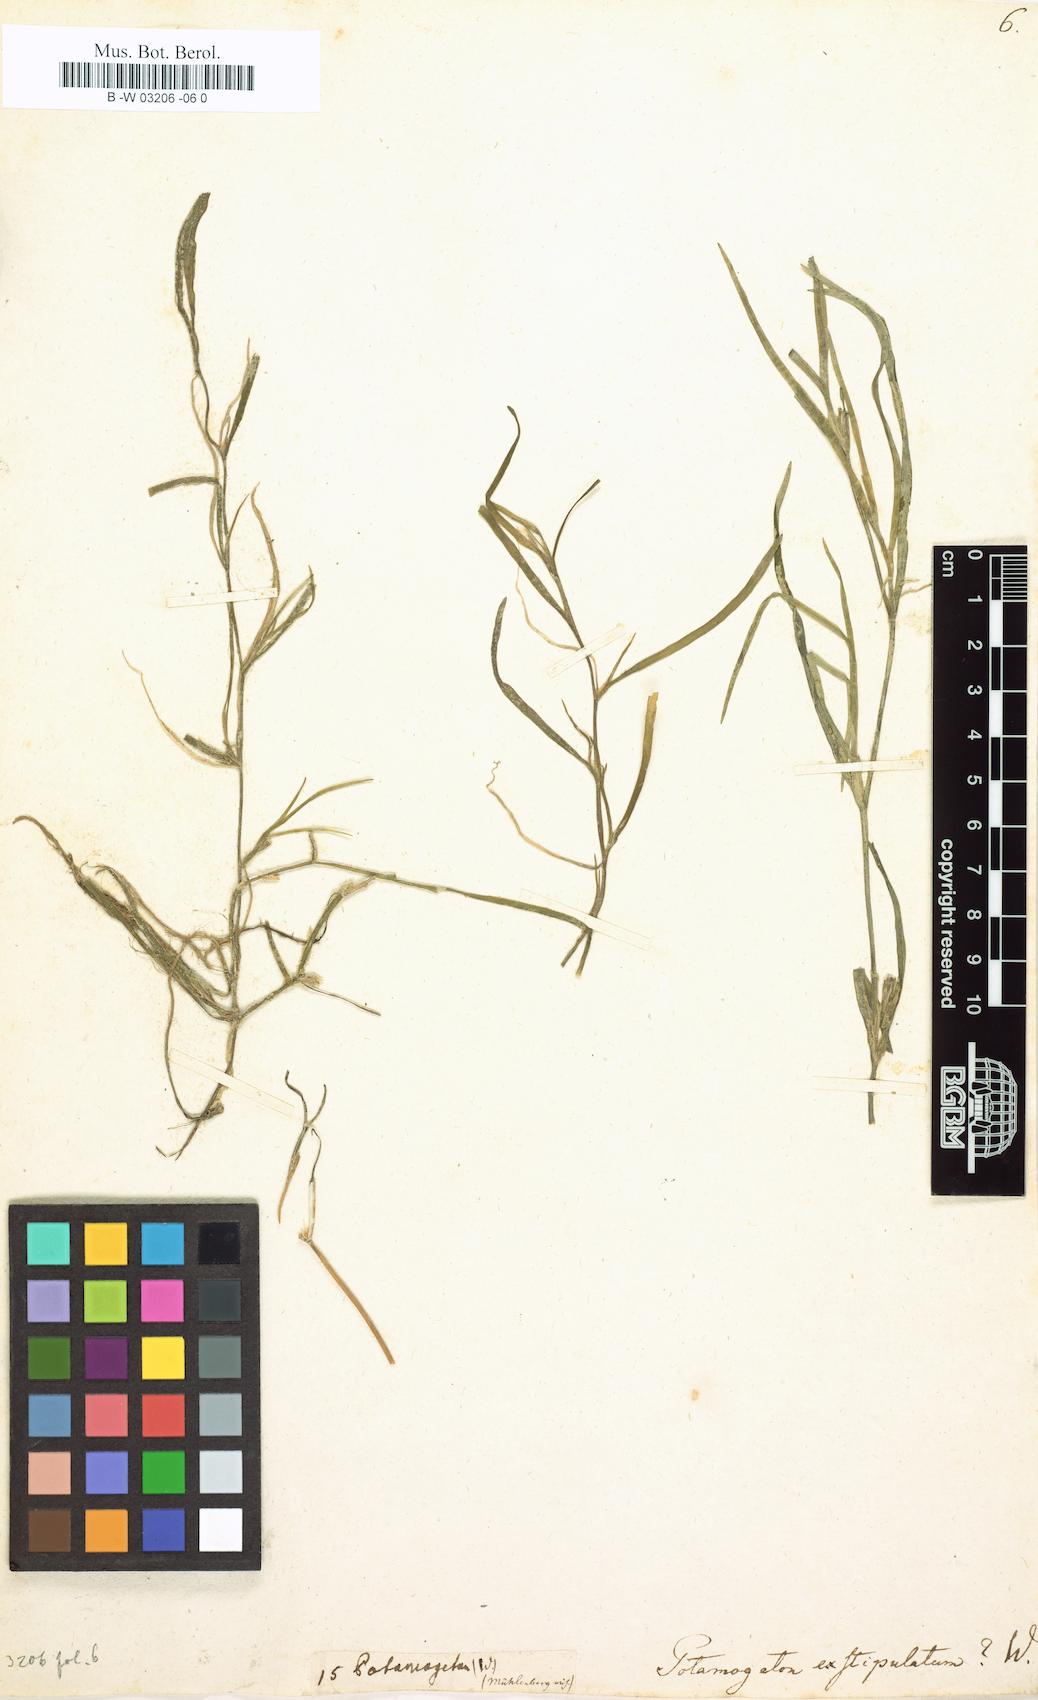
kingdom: Plantae
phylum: Tracheophyta
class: Liliopsida
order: Alismatales
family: Potamogetonaceae
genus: Potamogeton
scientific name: Potamogeton exstipulatus
